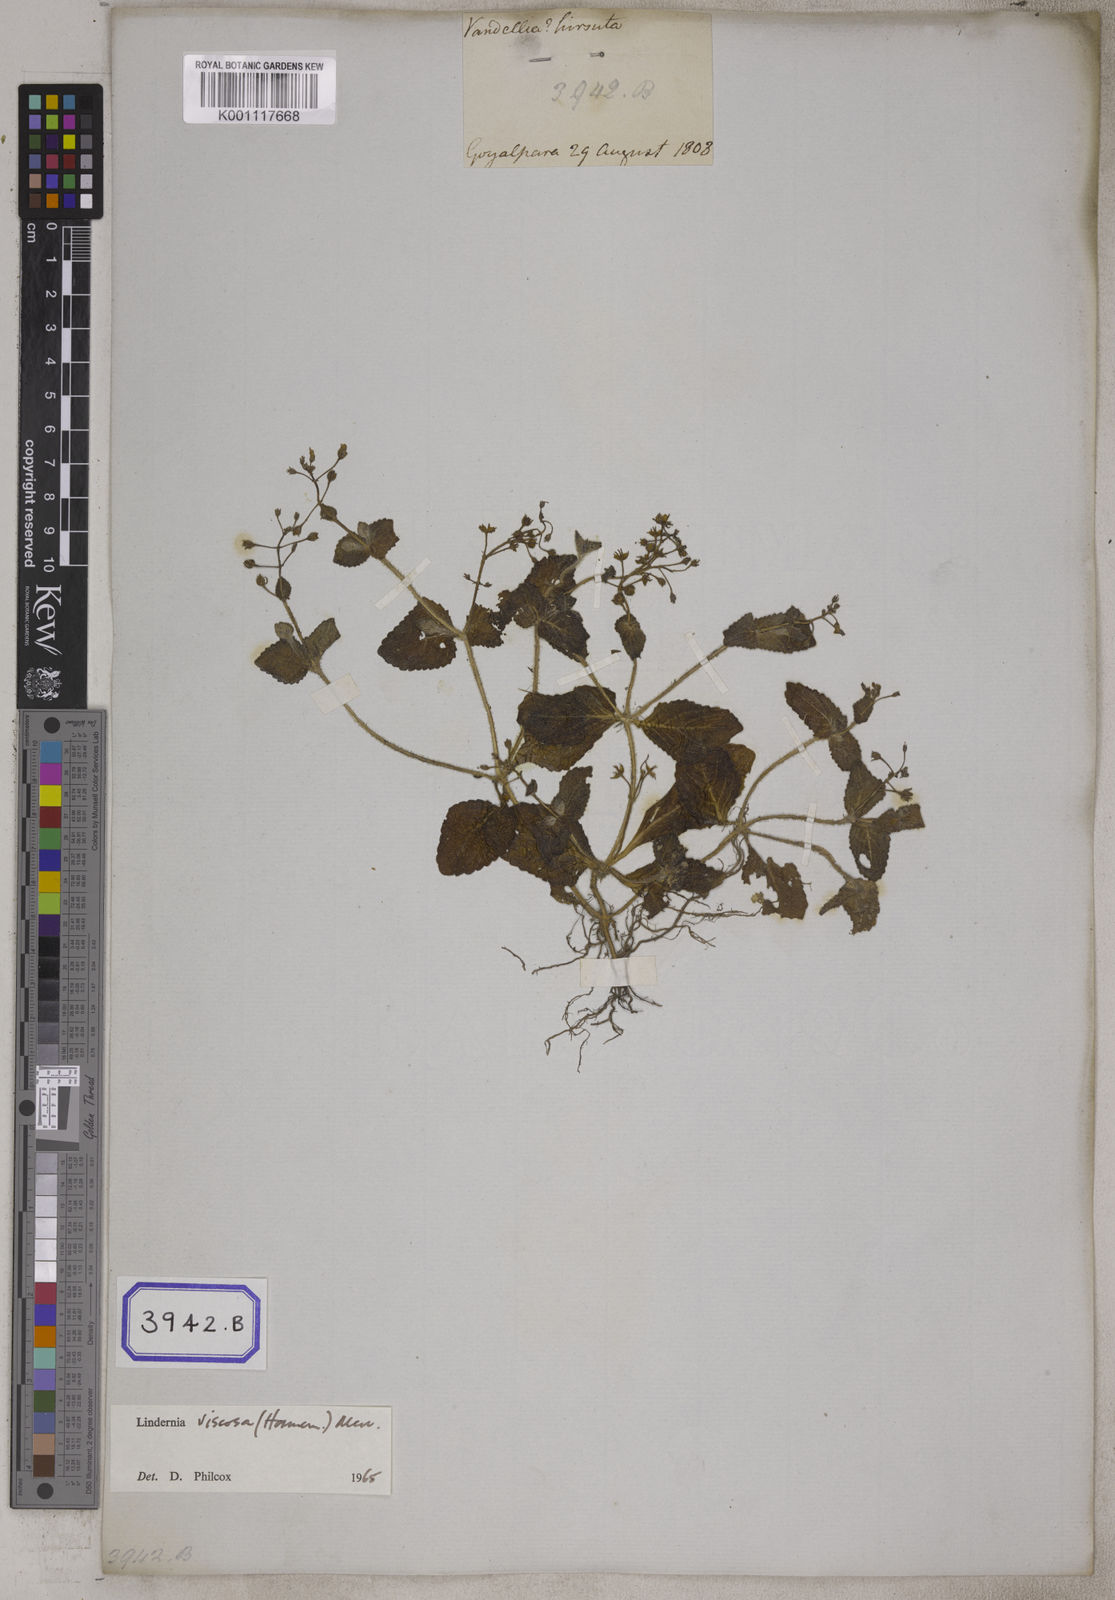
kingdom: Plantae
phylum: Tracheophyta
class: Magnoliopsida
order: Lamiales
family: Linderniaceae
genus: Yamazakia
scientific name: Yamazakia viscosa
